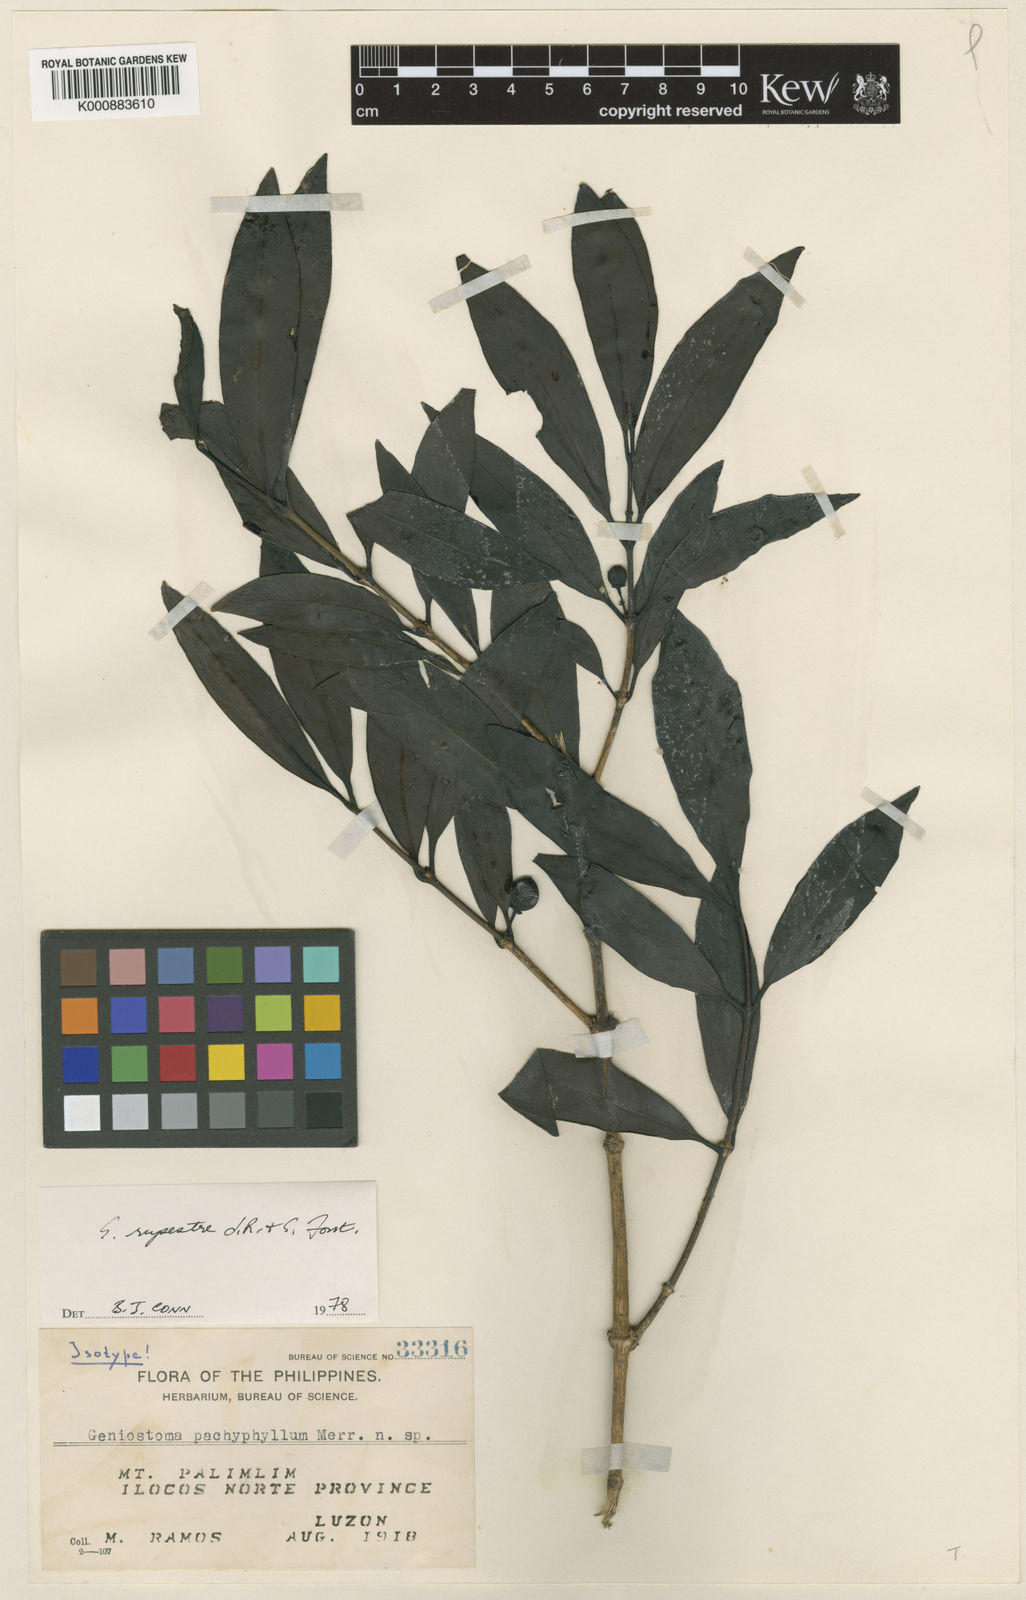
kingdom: Plantae
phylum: Tracheophyta
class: Magnoliopsida
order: Gentianales
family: Loganiaceae
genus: Geniostoma
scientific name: Geniostoma rupestre
